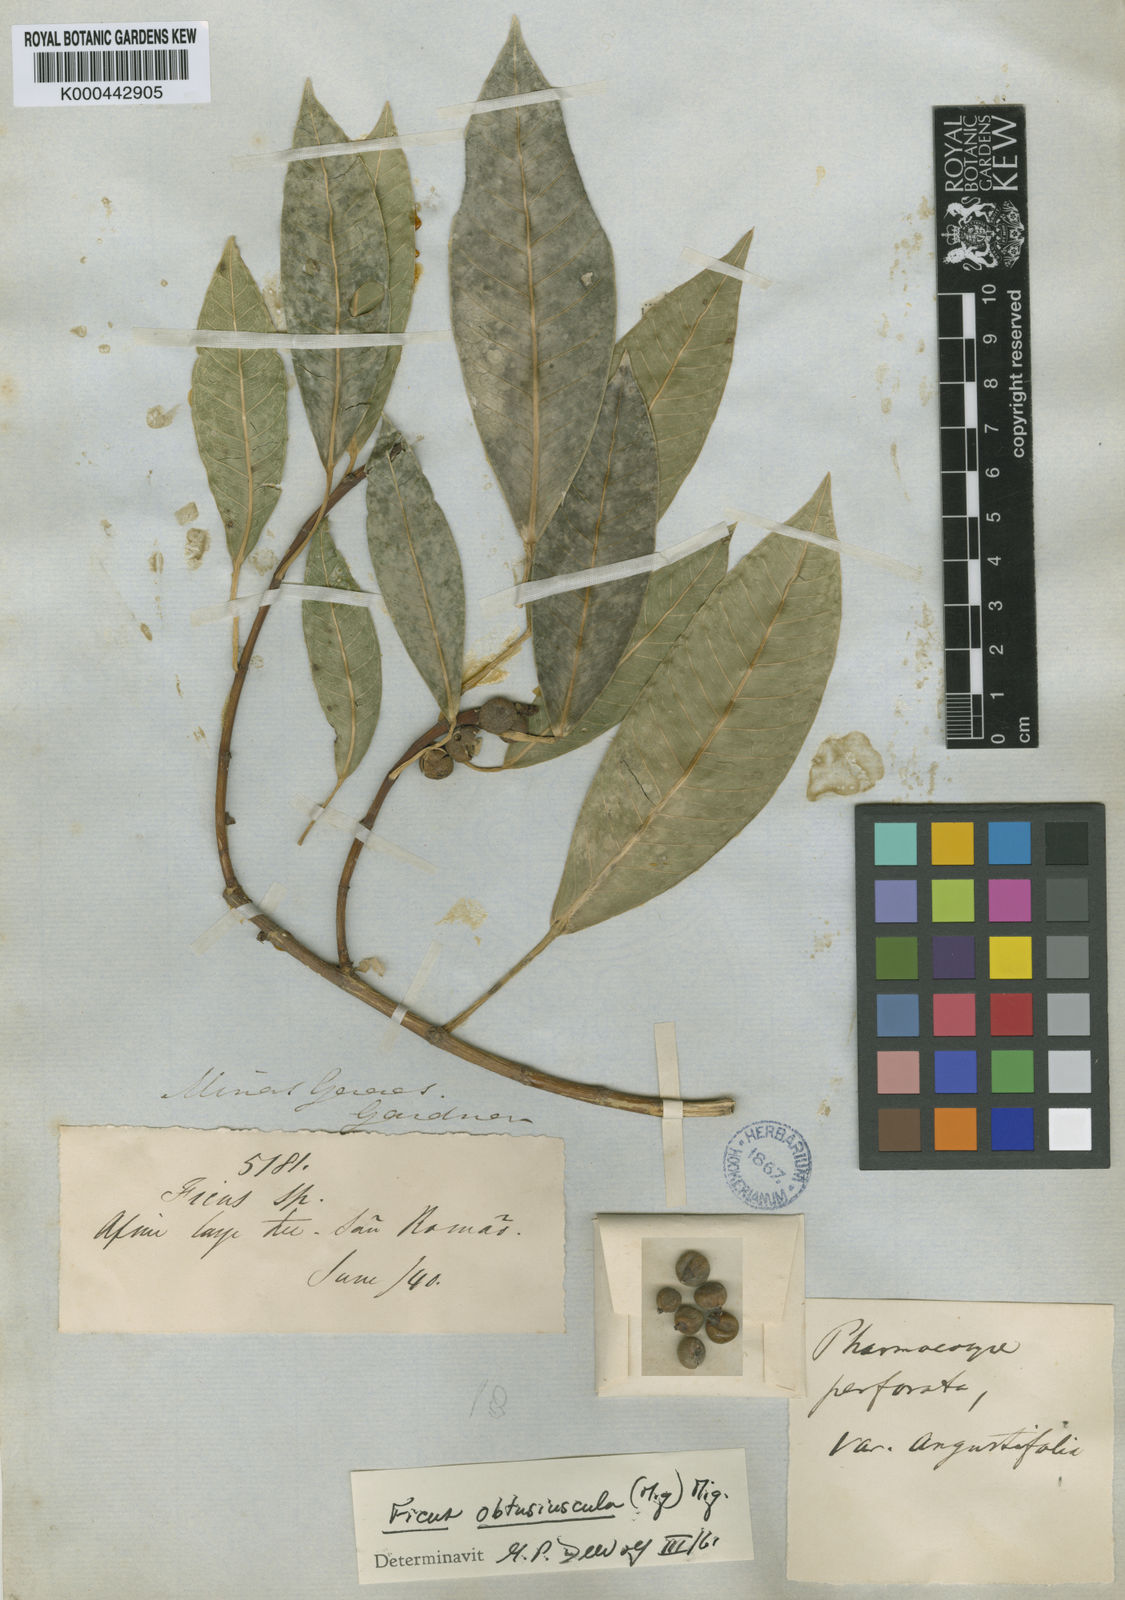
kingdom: Plantae
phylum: Tracheophyta
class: Magnoliopsida
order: Rosales
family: Moraceae
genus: Ficus
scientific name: Ficus obtusiuscula
